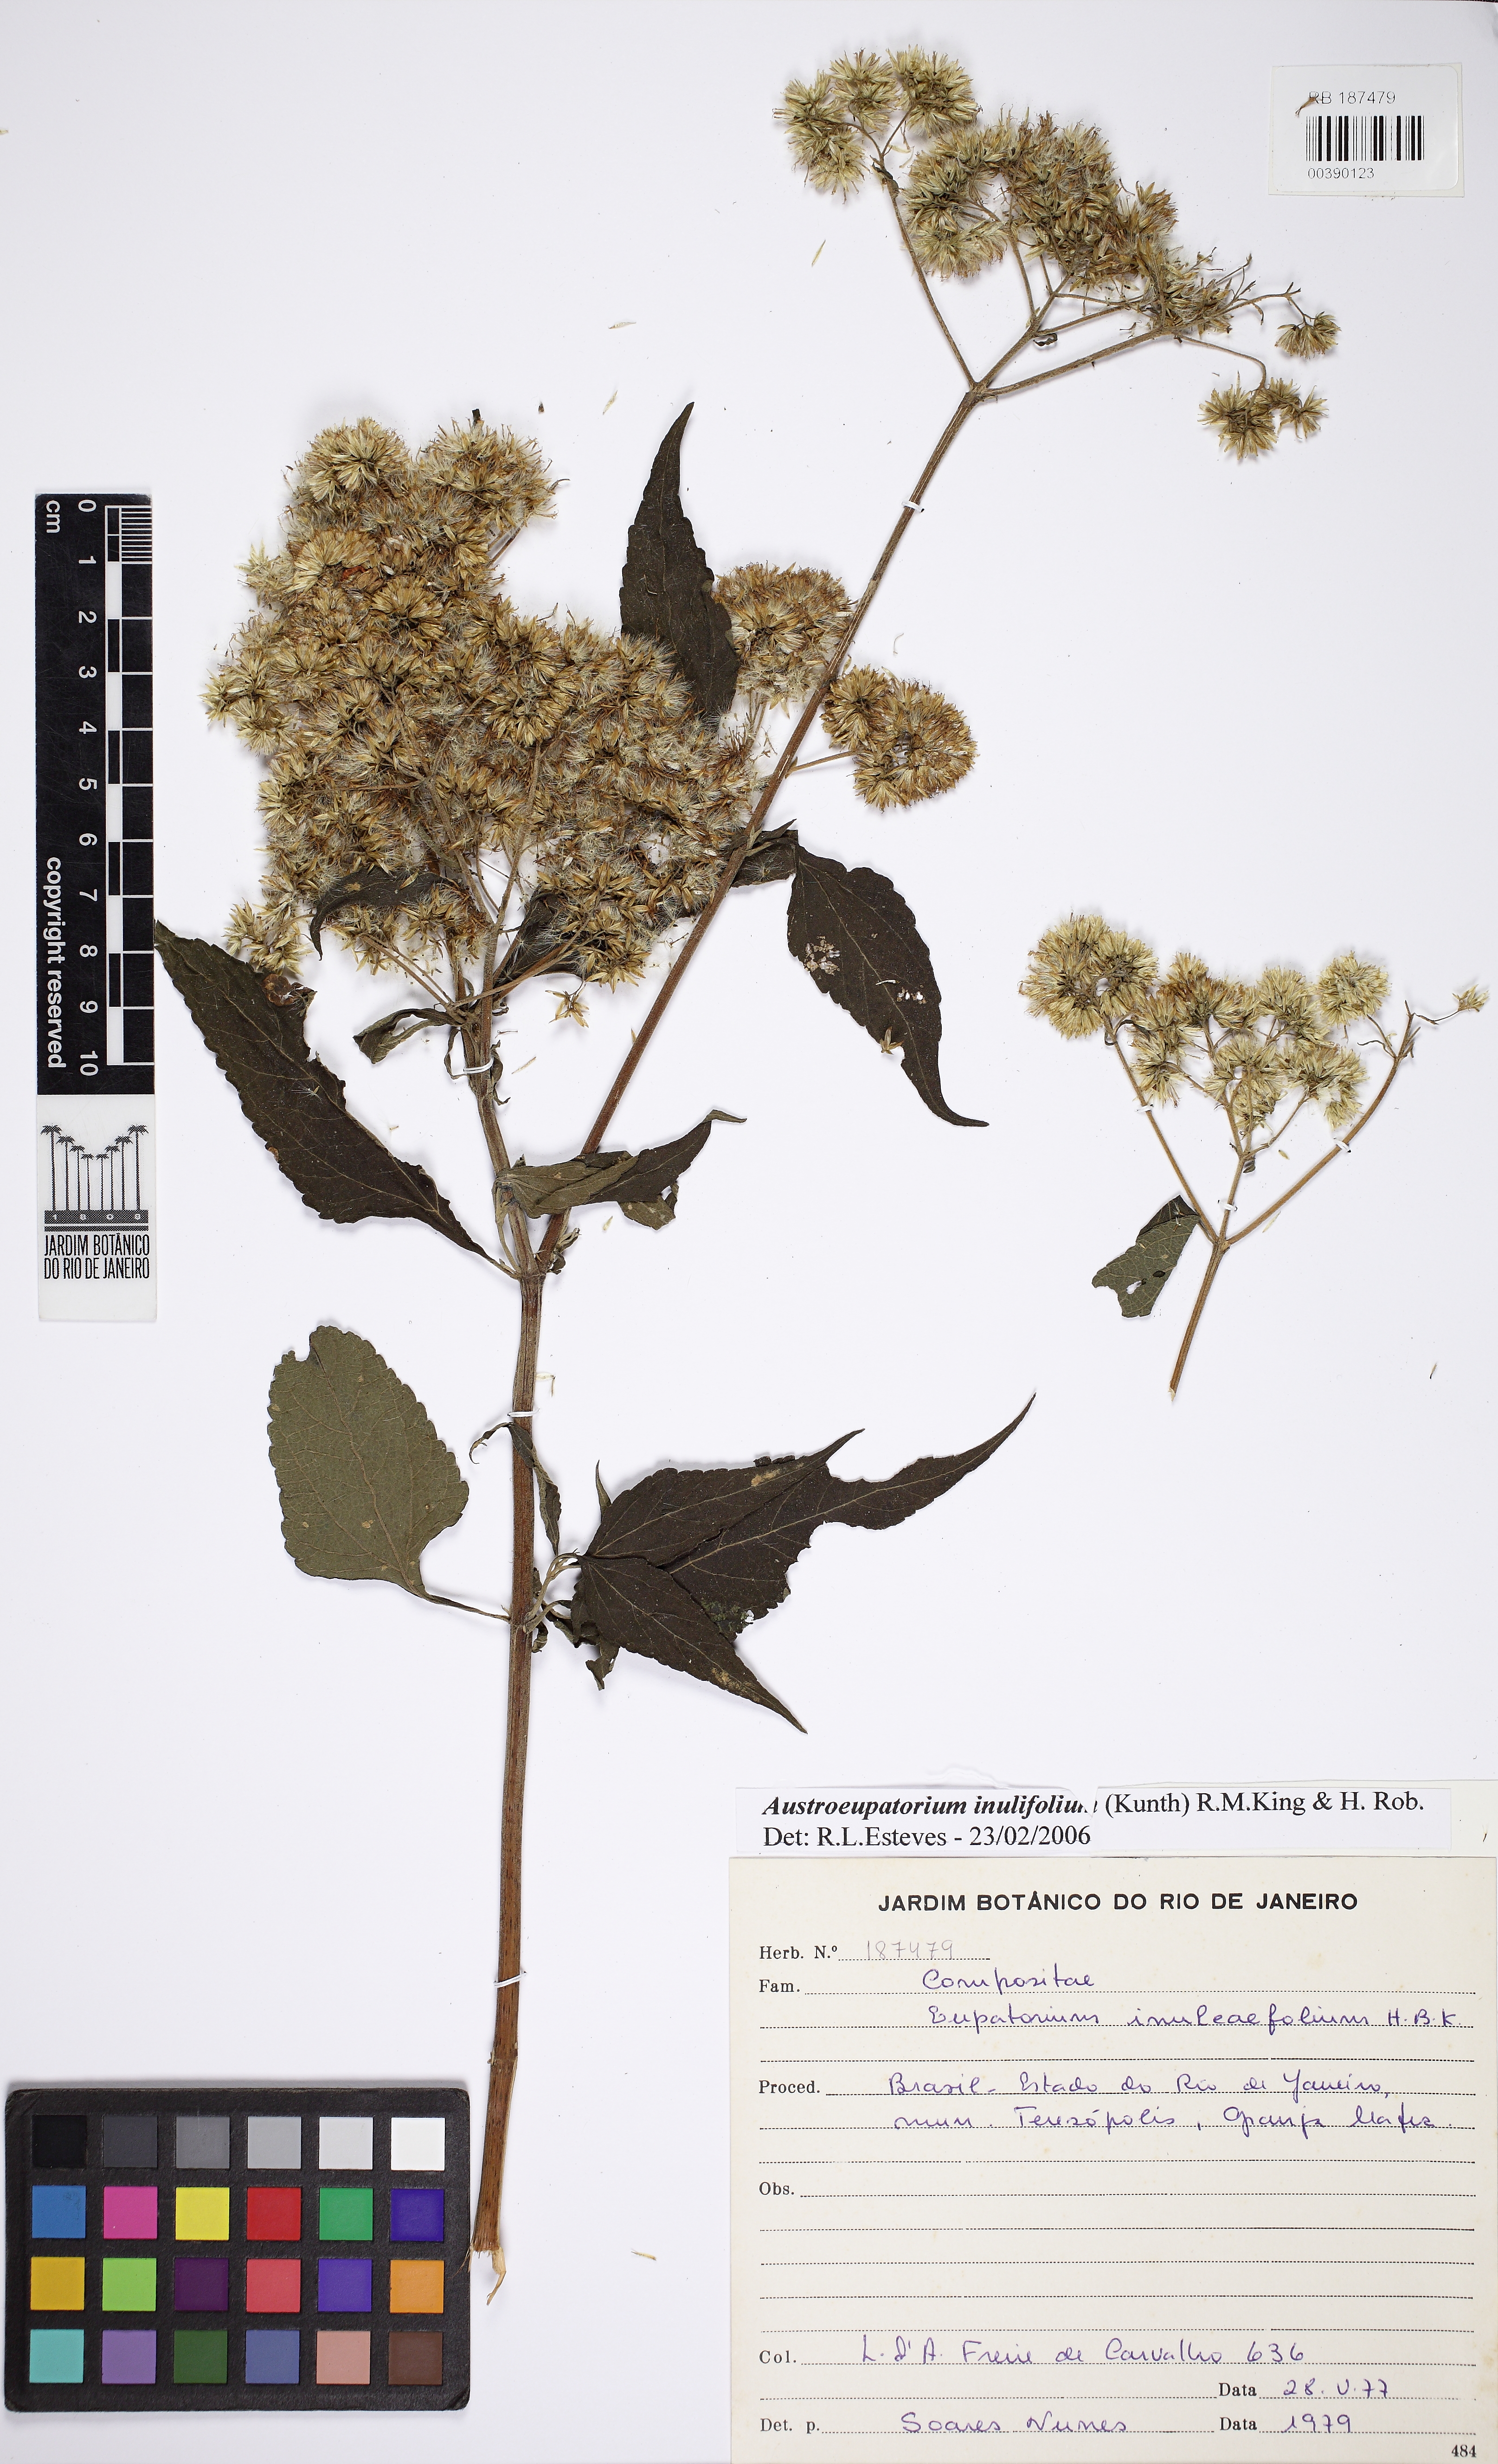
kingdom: Plantae
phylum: Tracheophyta
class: Magnoliopsida
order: Asterales
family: Asteraceae
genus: Austroeupatorium
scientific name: Austroeupatorium inulaefolium
